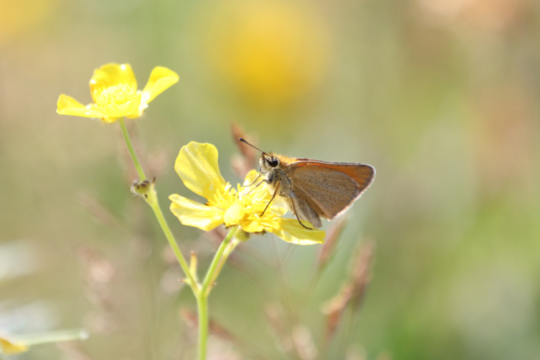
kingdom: Animalia
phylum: Arthropoda
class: Insecta
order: Lepidoptera
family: Hesperiidae
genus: Thymelicus
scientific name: Thymelicus lineola
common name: European Skipper
